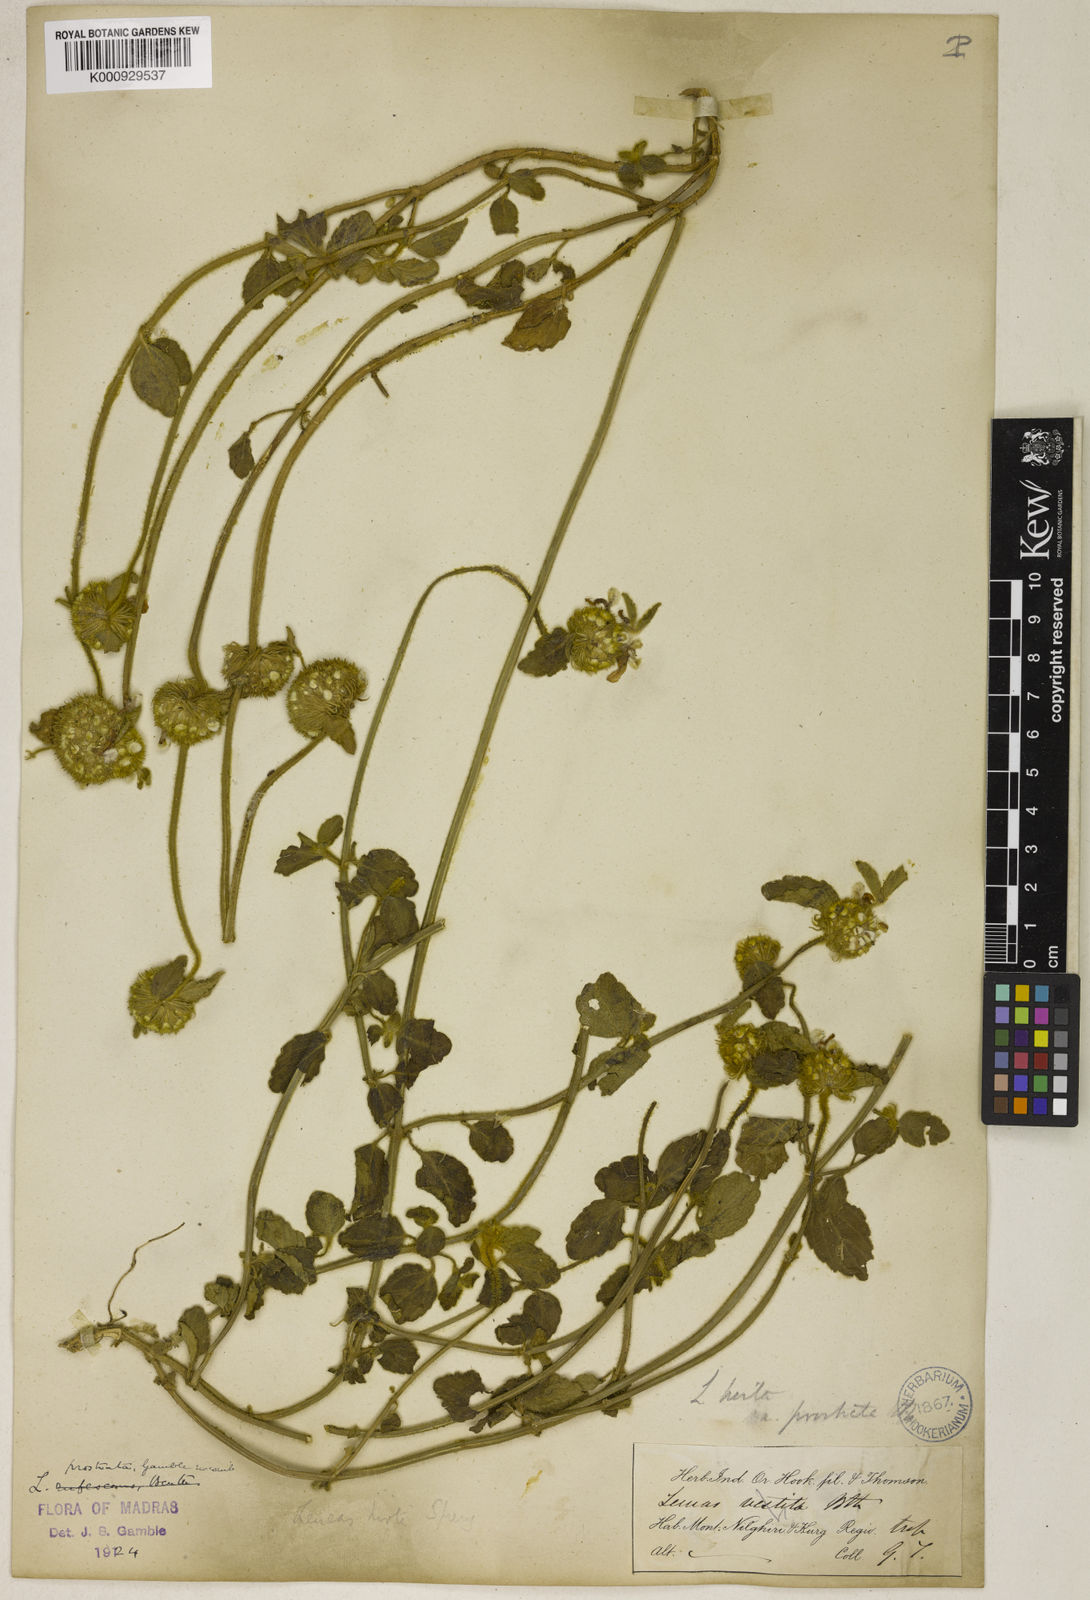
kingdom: Plantae
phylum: Tracheophyta
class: Magnoliopsida
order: Lamiales
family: Lamiaceae
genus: Leucas
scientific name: Leucas hirta
